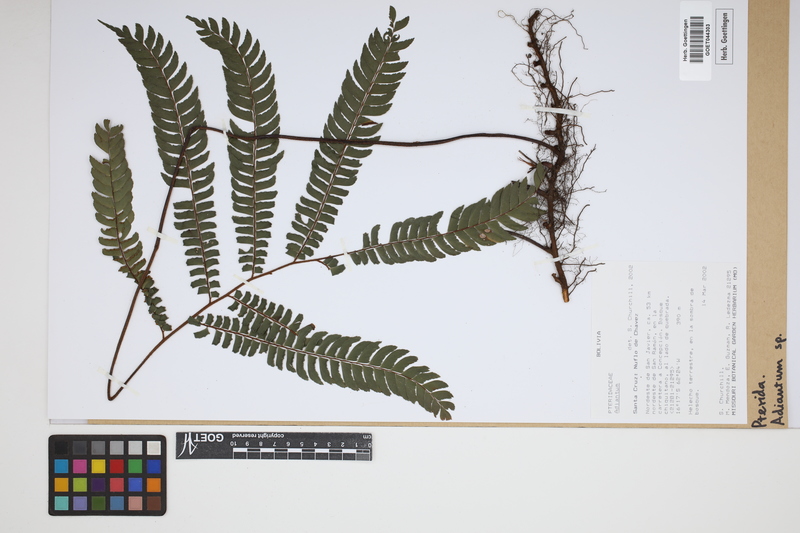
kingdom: Plantae
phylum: Tracheophyta
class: Polypodiopsida
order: Polypodiales
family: Pteridaceae
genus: Adiantum
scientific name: Adiantum
